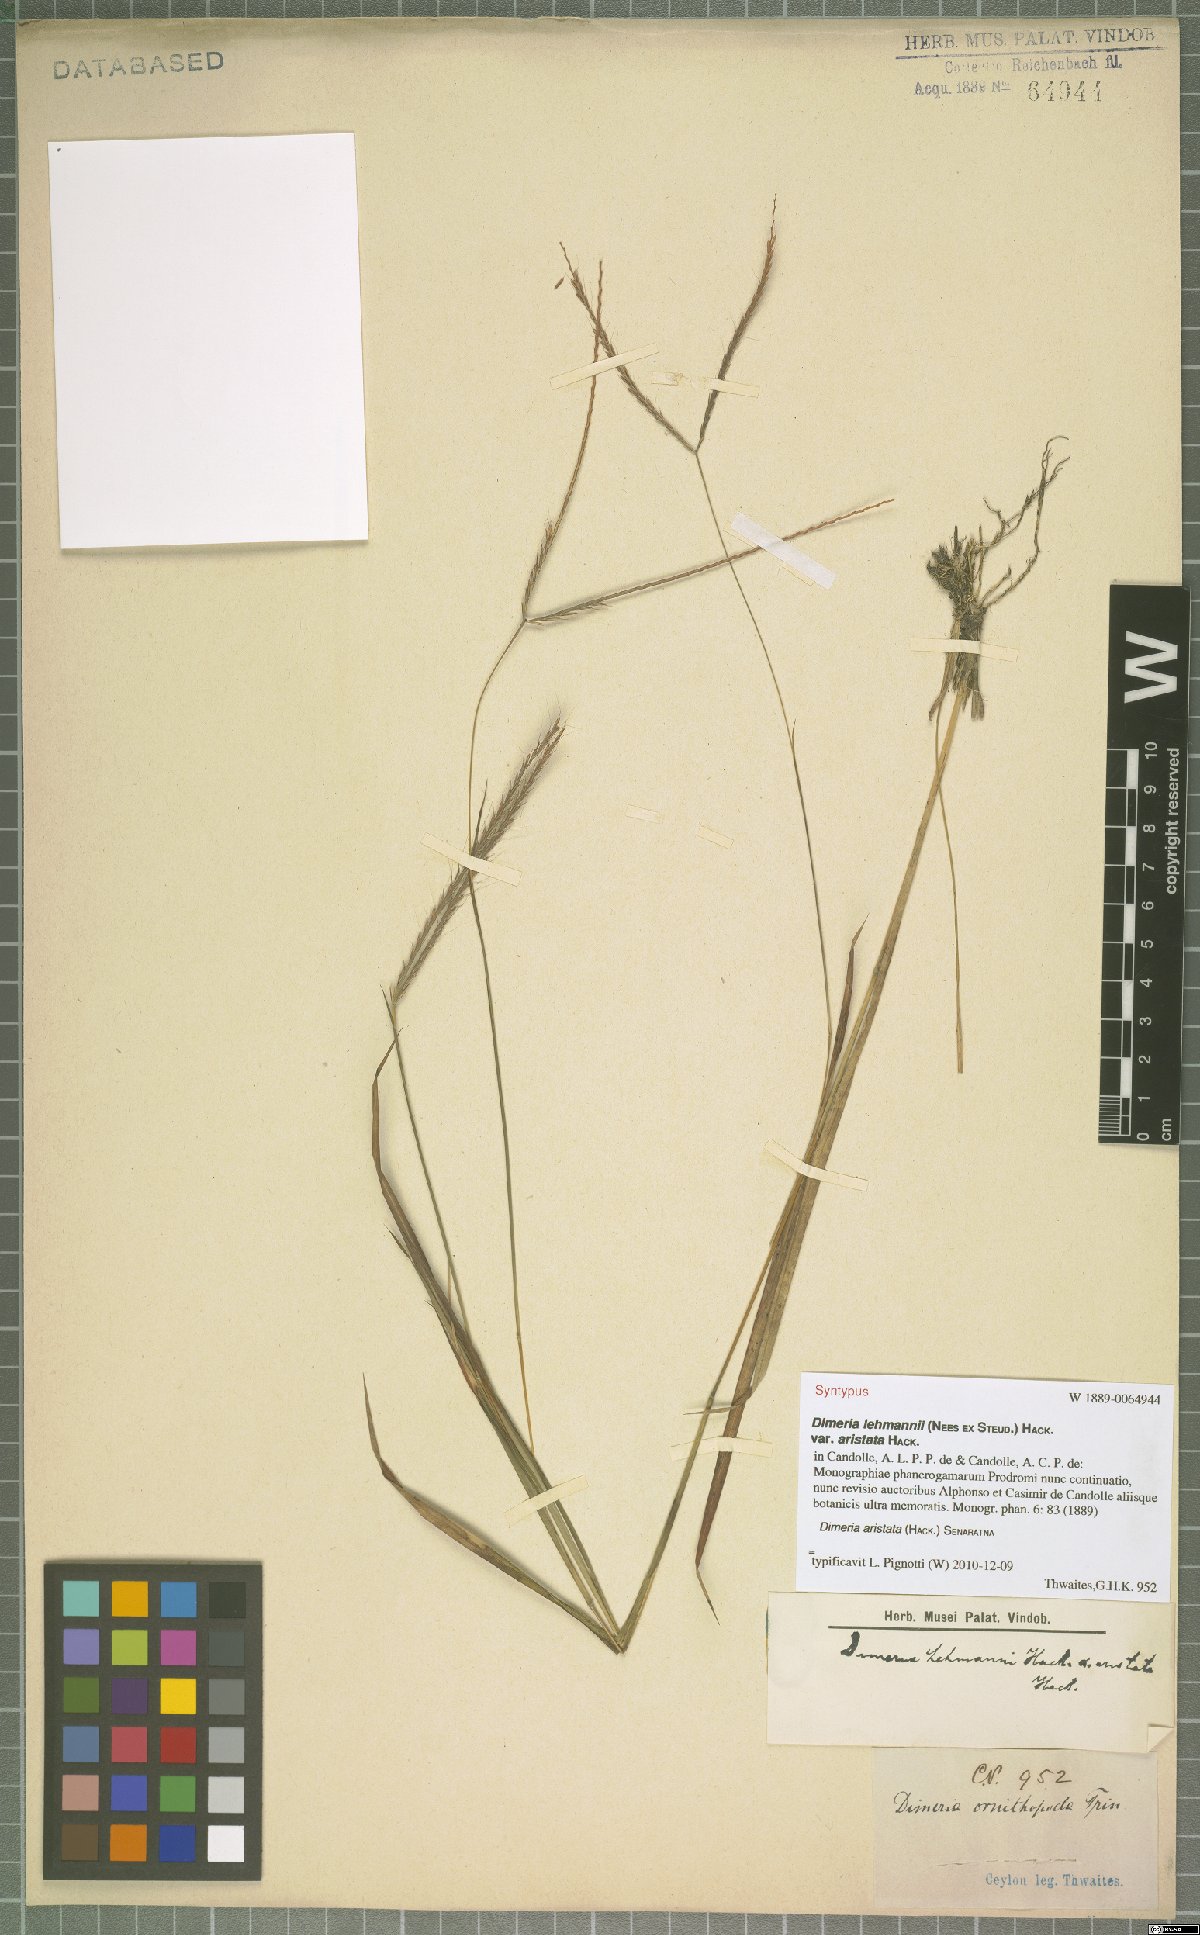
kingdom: Plantae
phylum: Tracheophyta
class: Liliopsida
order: Poales
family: Poaceae
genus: Dimeria
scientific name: Dimeria aristata
